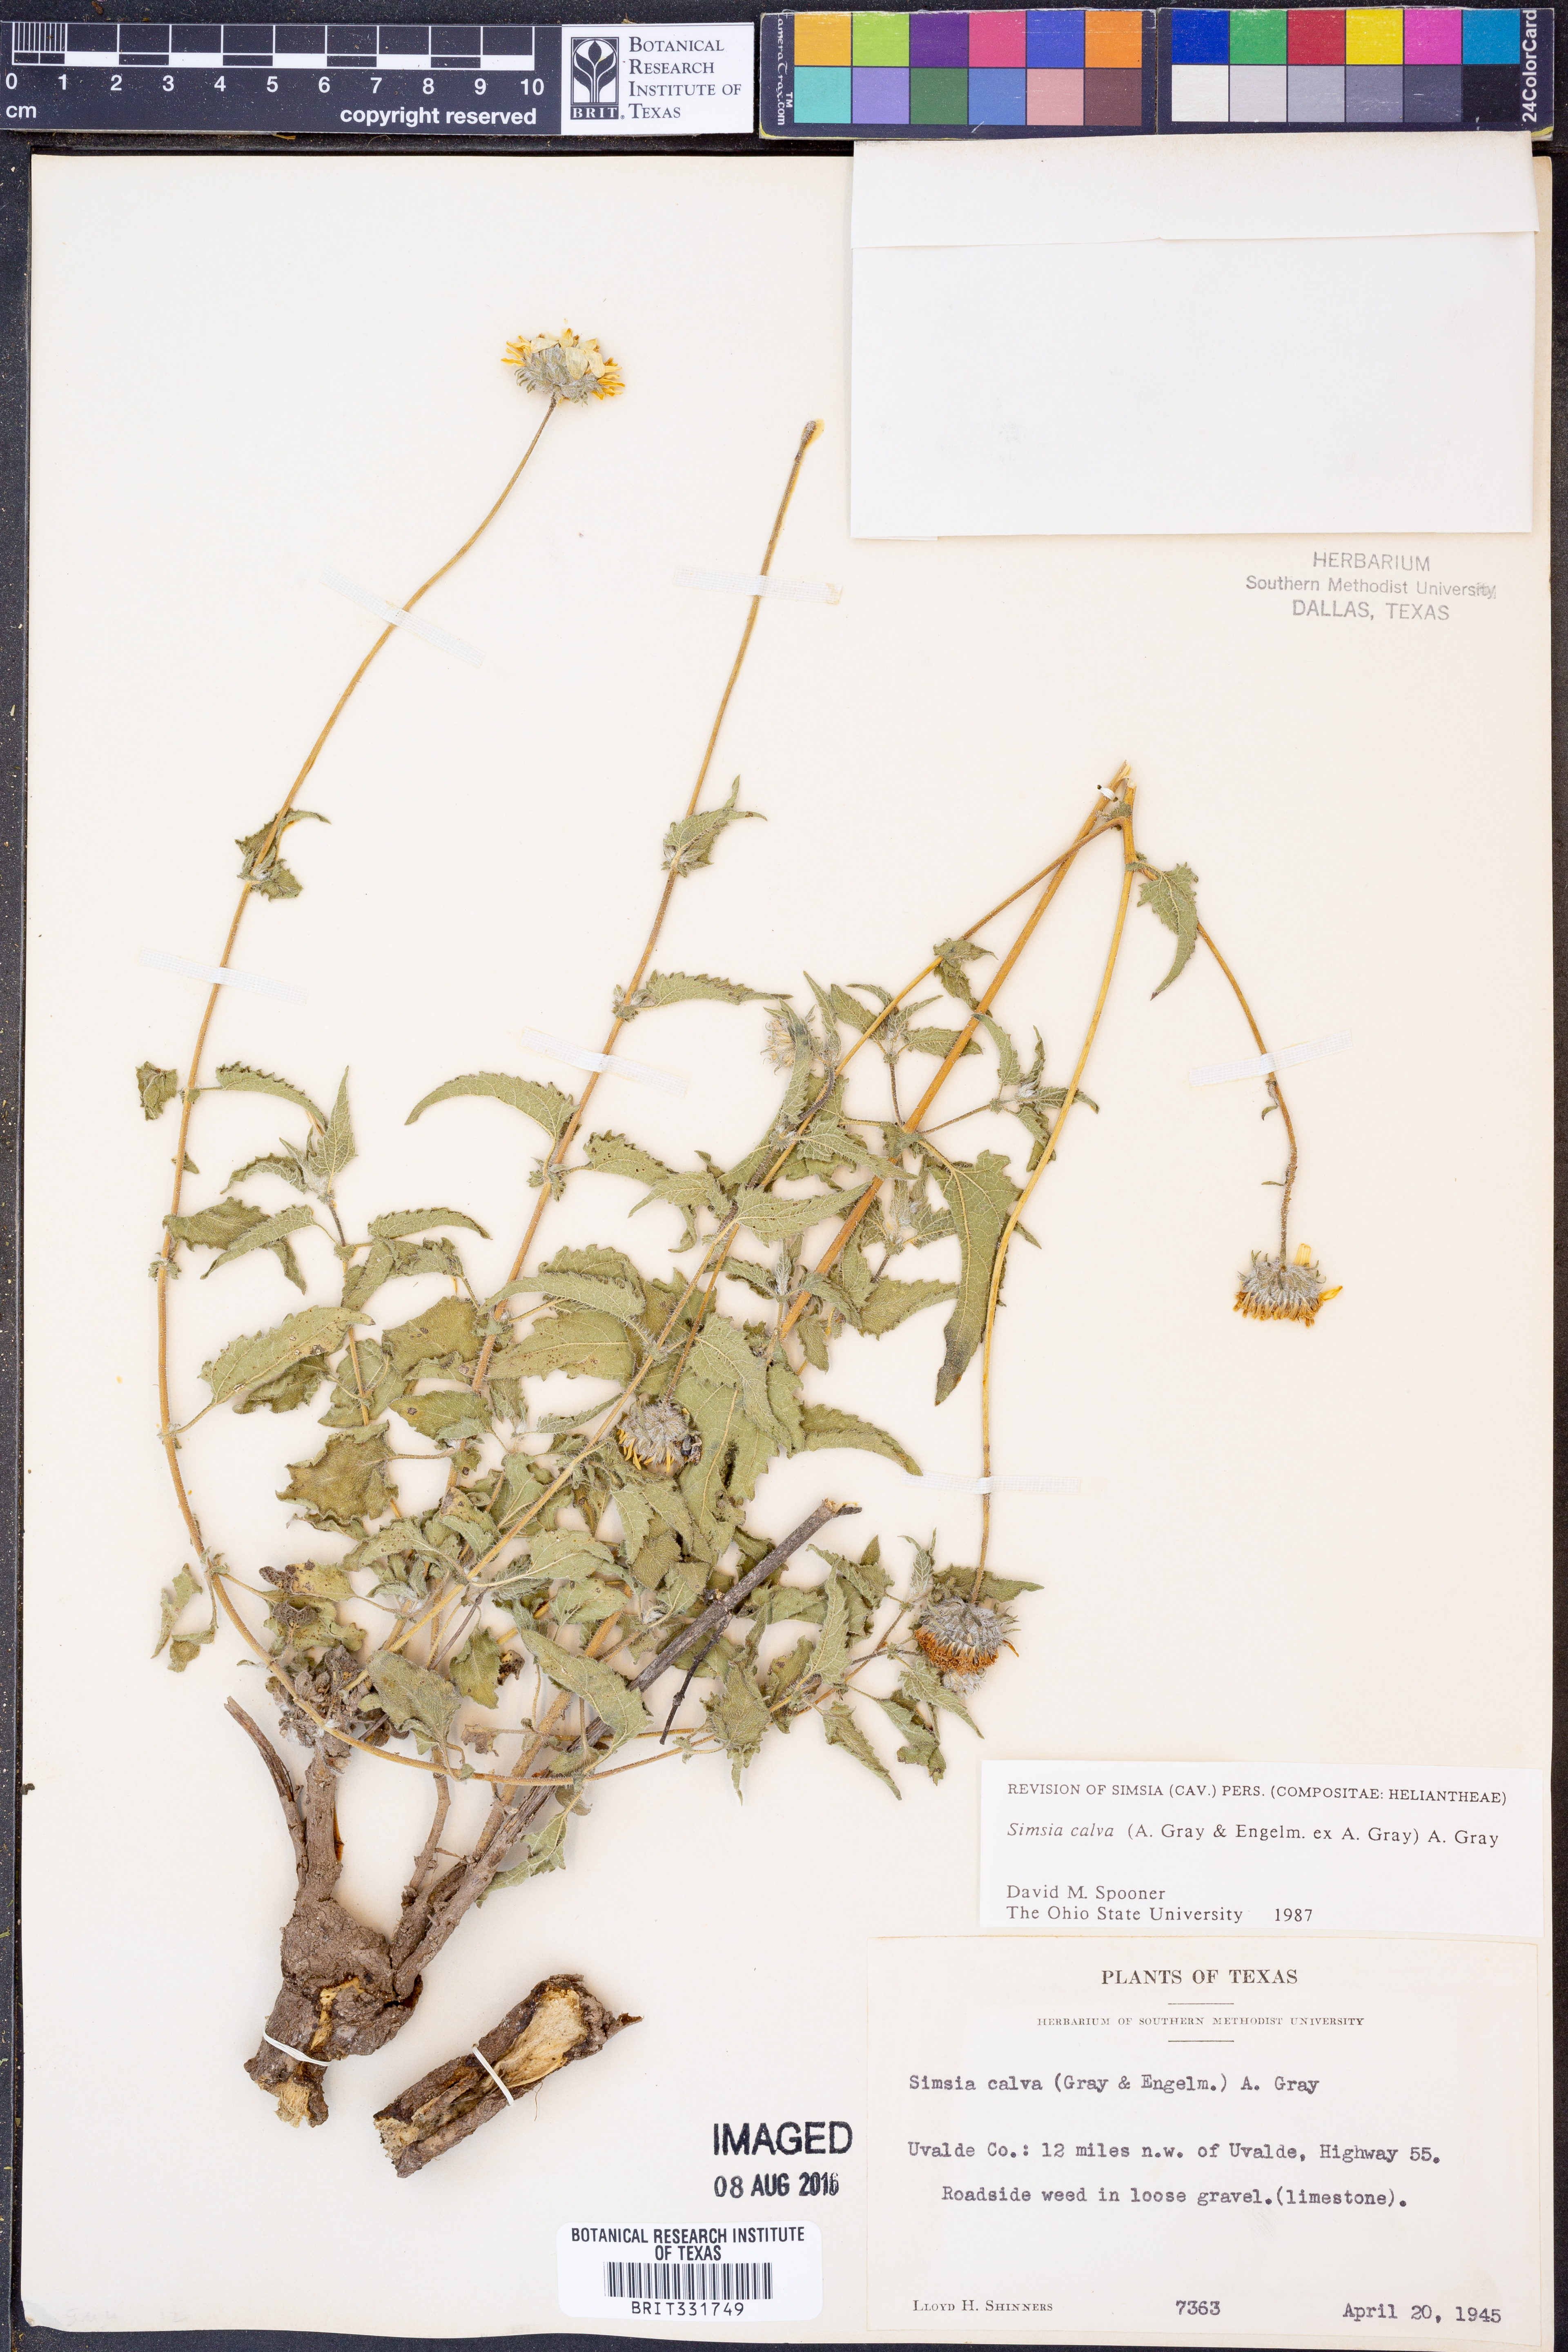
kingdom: Plantae
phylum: Tracheophyta
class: Magnoliopsida
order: Asterales
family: Asteraceae
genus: Simsia
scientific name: Simsia calva
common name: Awnless bush-sunflower
